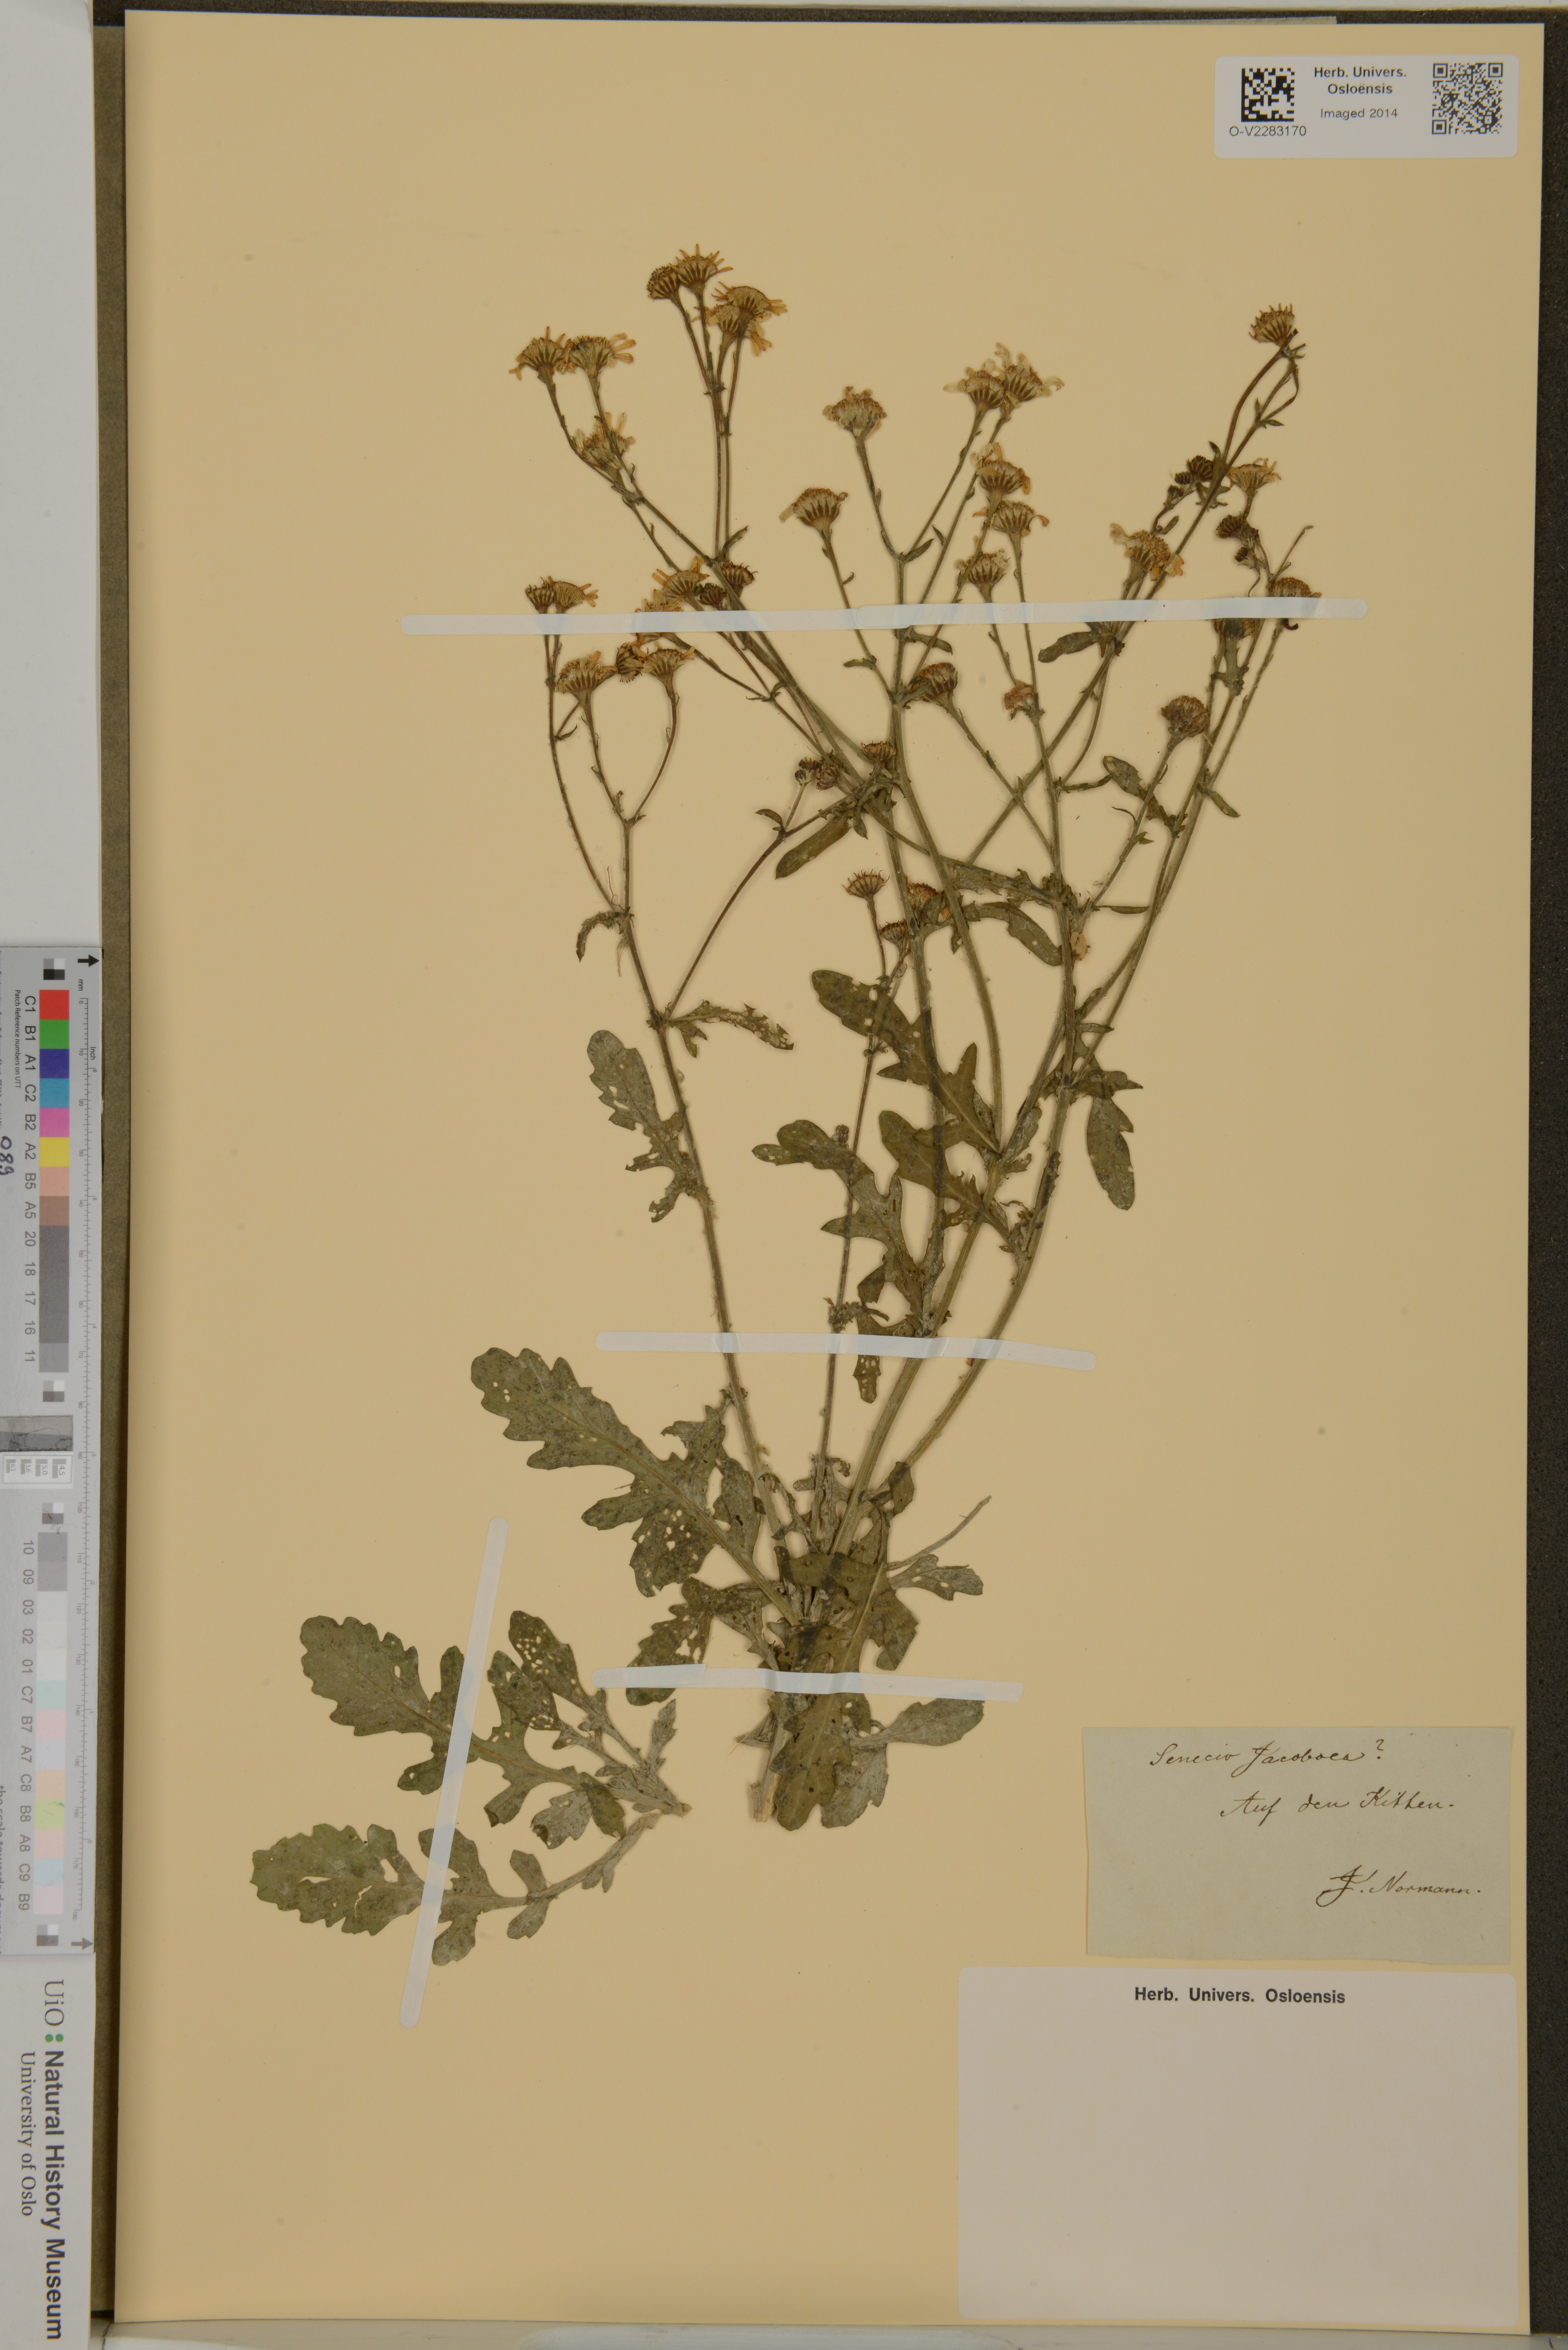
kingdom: Plantae
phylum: Tracheophyta
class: Magnoliopsida
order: Asterales
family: Asteraceae
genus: Senecio
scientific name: Senecio jacobaea
